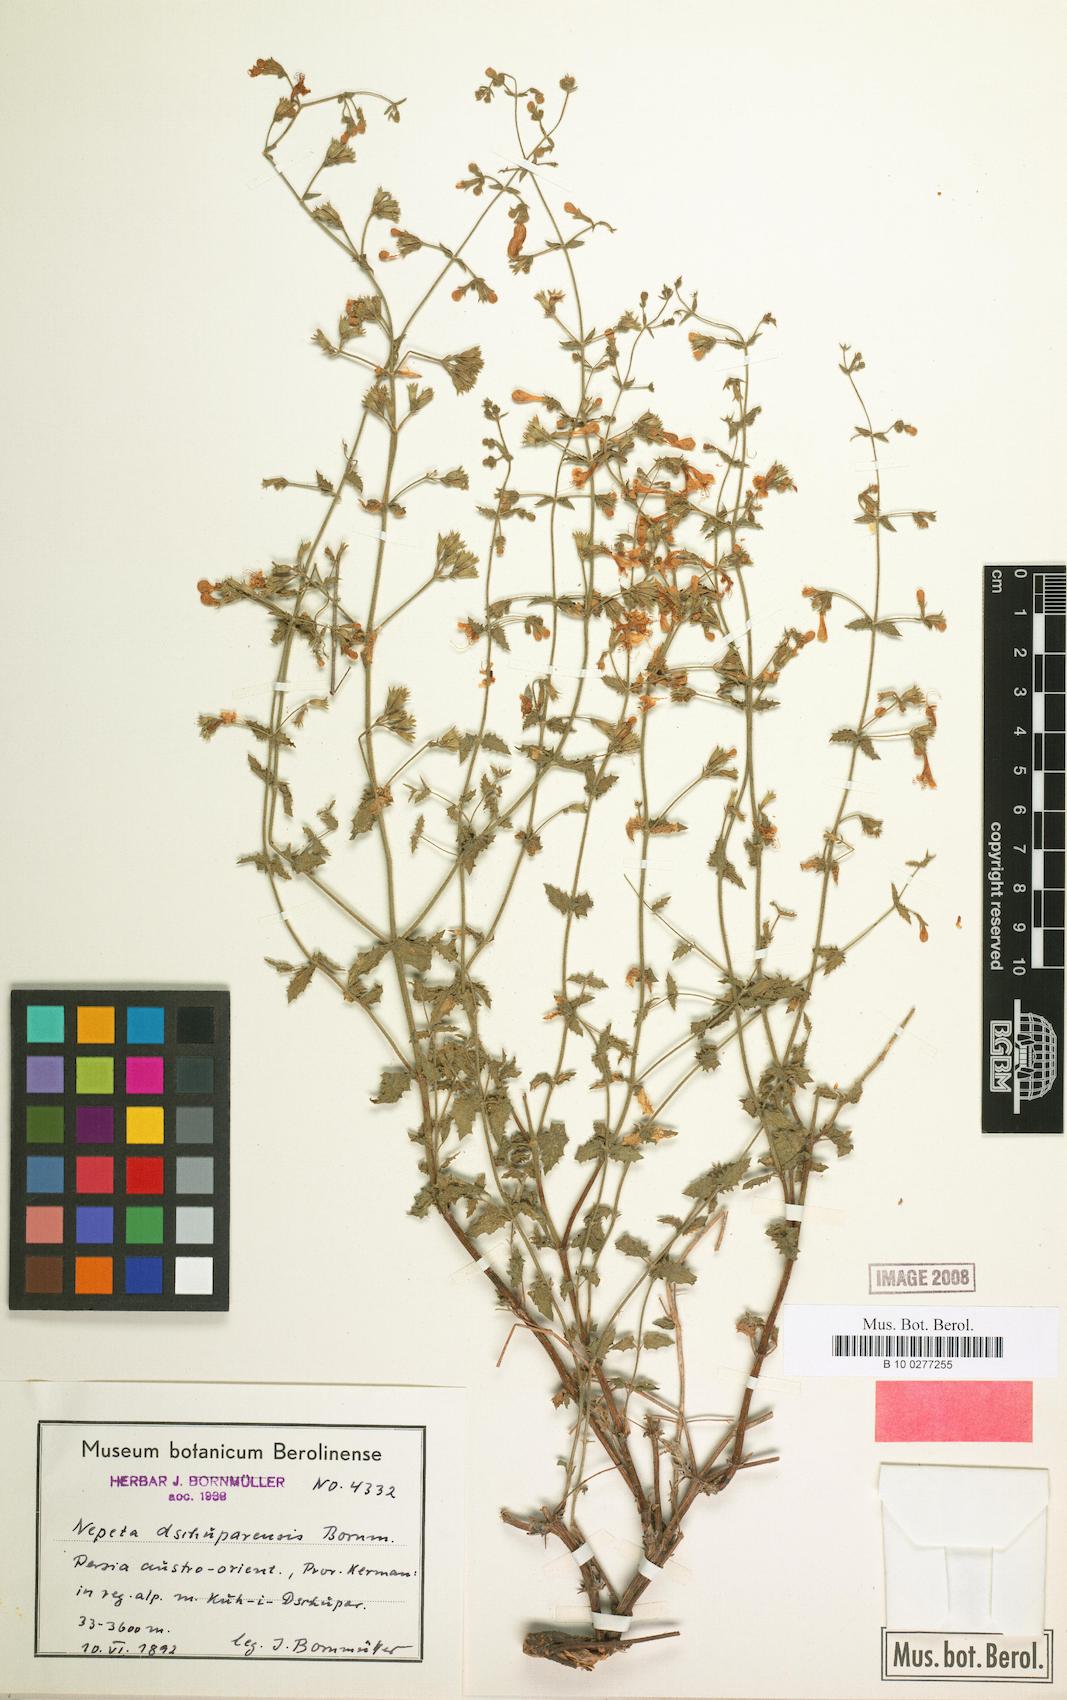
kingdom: Plantae
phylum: Tracheophyta
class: Magnoliopsida
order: Lamiales
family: Lamiaceae
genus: Nepeta
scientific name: Nepeta dschuparensis
